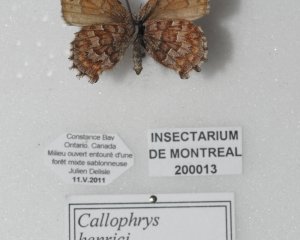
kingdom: Animalia
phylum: Arthropoda
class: Insecta
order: Lepidoptera
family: Lycaenidae
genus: Incisalia
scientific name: Incisalia niphon
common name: Eastern Pine Elfin
